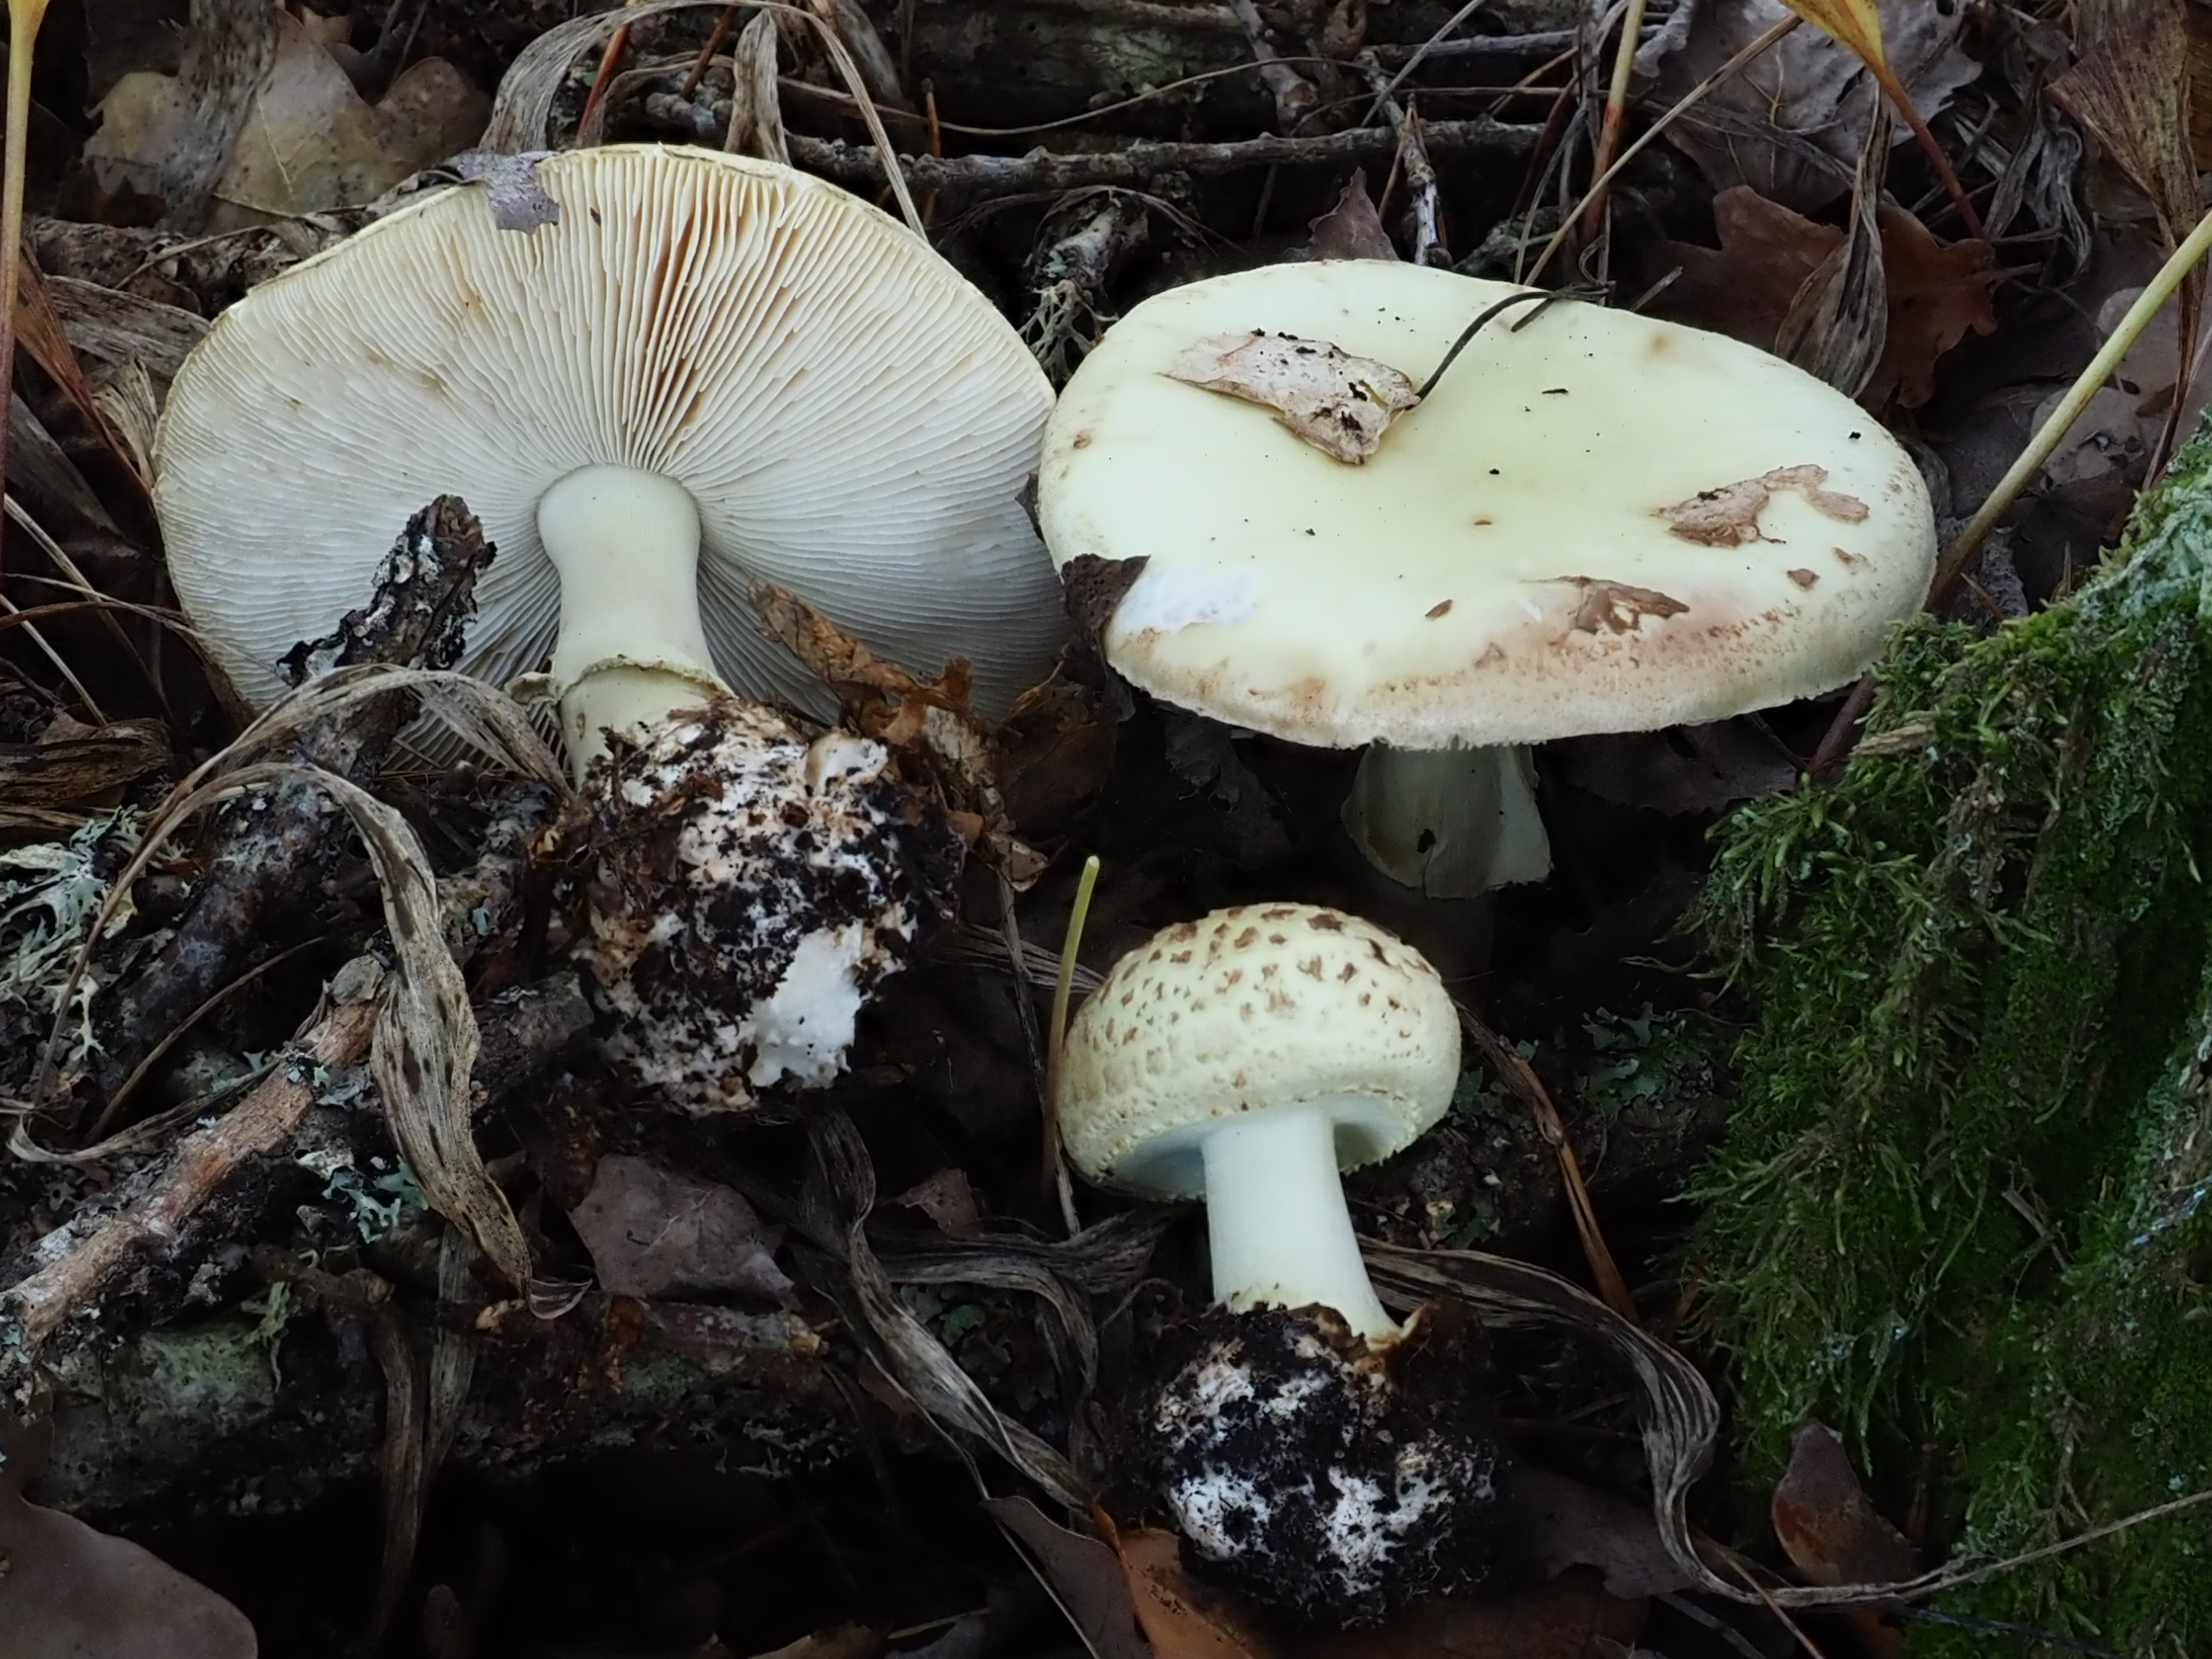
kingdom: Fungi
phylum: Basidiomycota
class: Agaricomycetes
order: Agaricales
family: Amanitaceae
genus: Amanita
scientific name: Amanita citrina
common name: False death-cap
